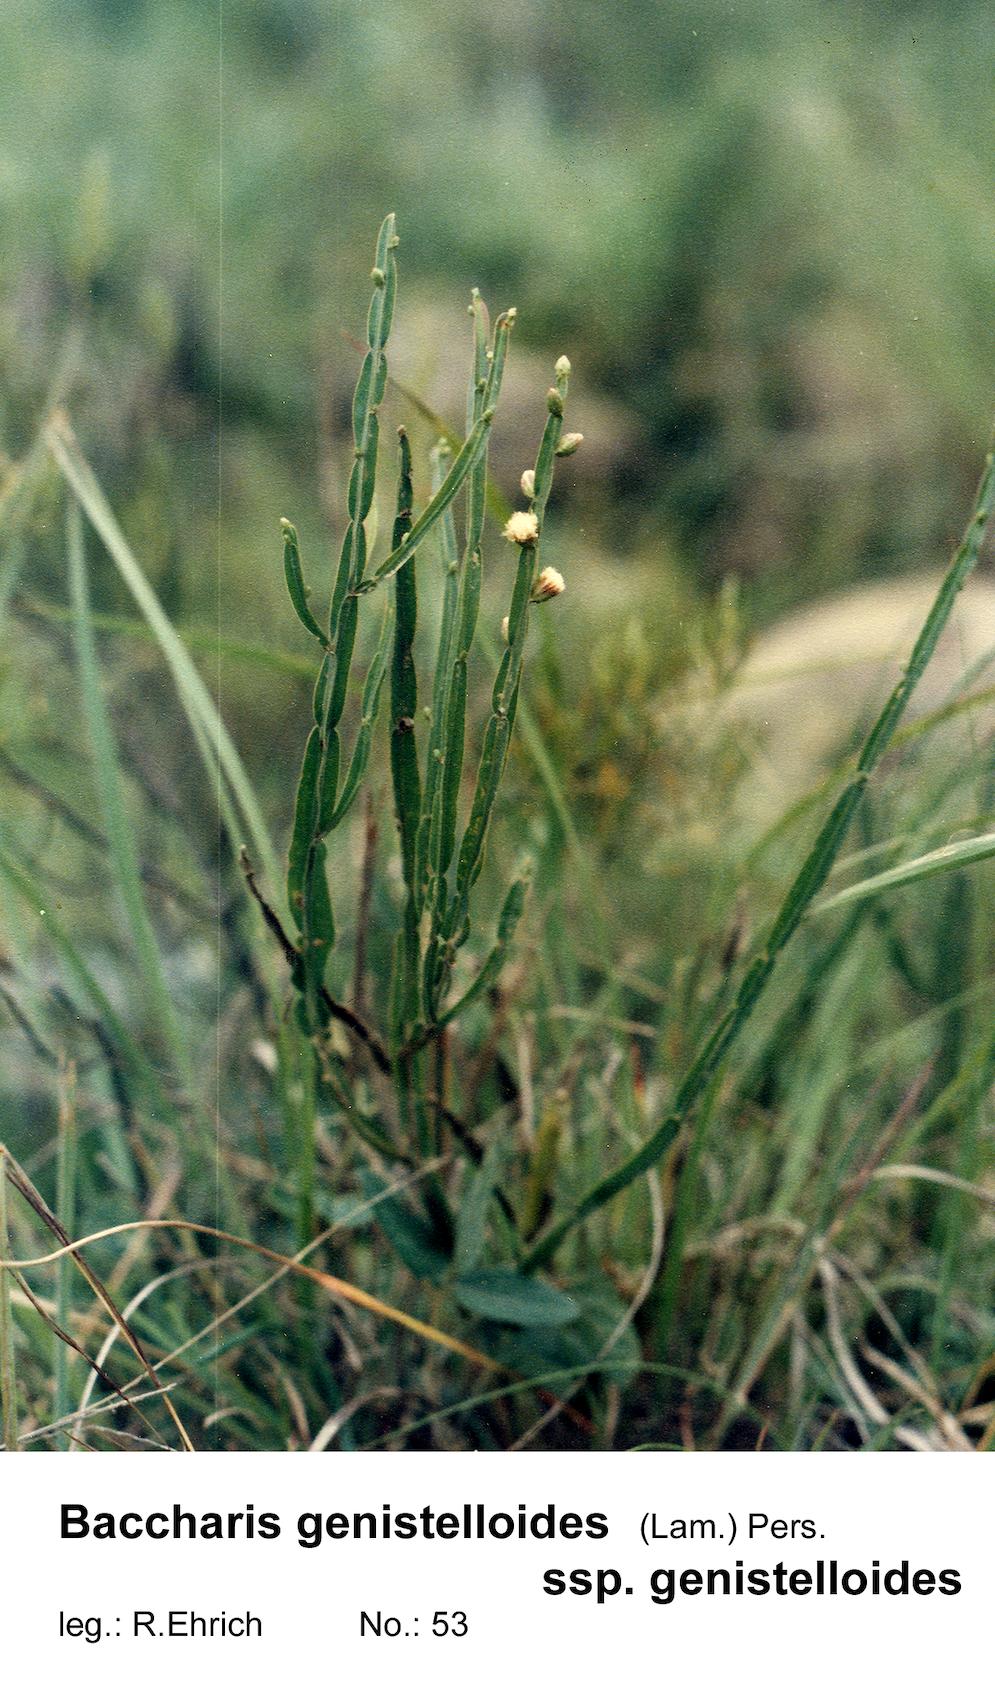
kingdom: Plantae
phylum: Tracheophyta
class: Magnoliopsida
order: Asterales
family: Asteraceae
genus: Baccharis
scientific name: Baccharis genistelloides
